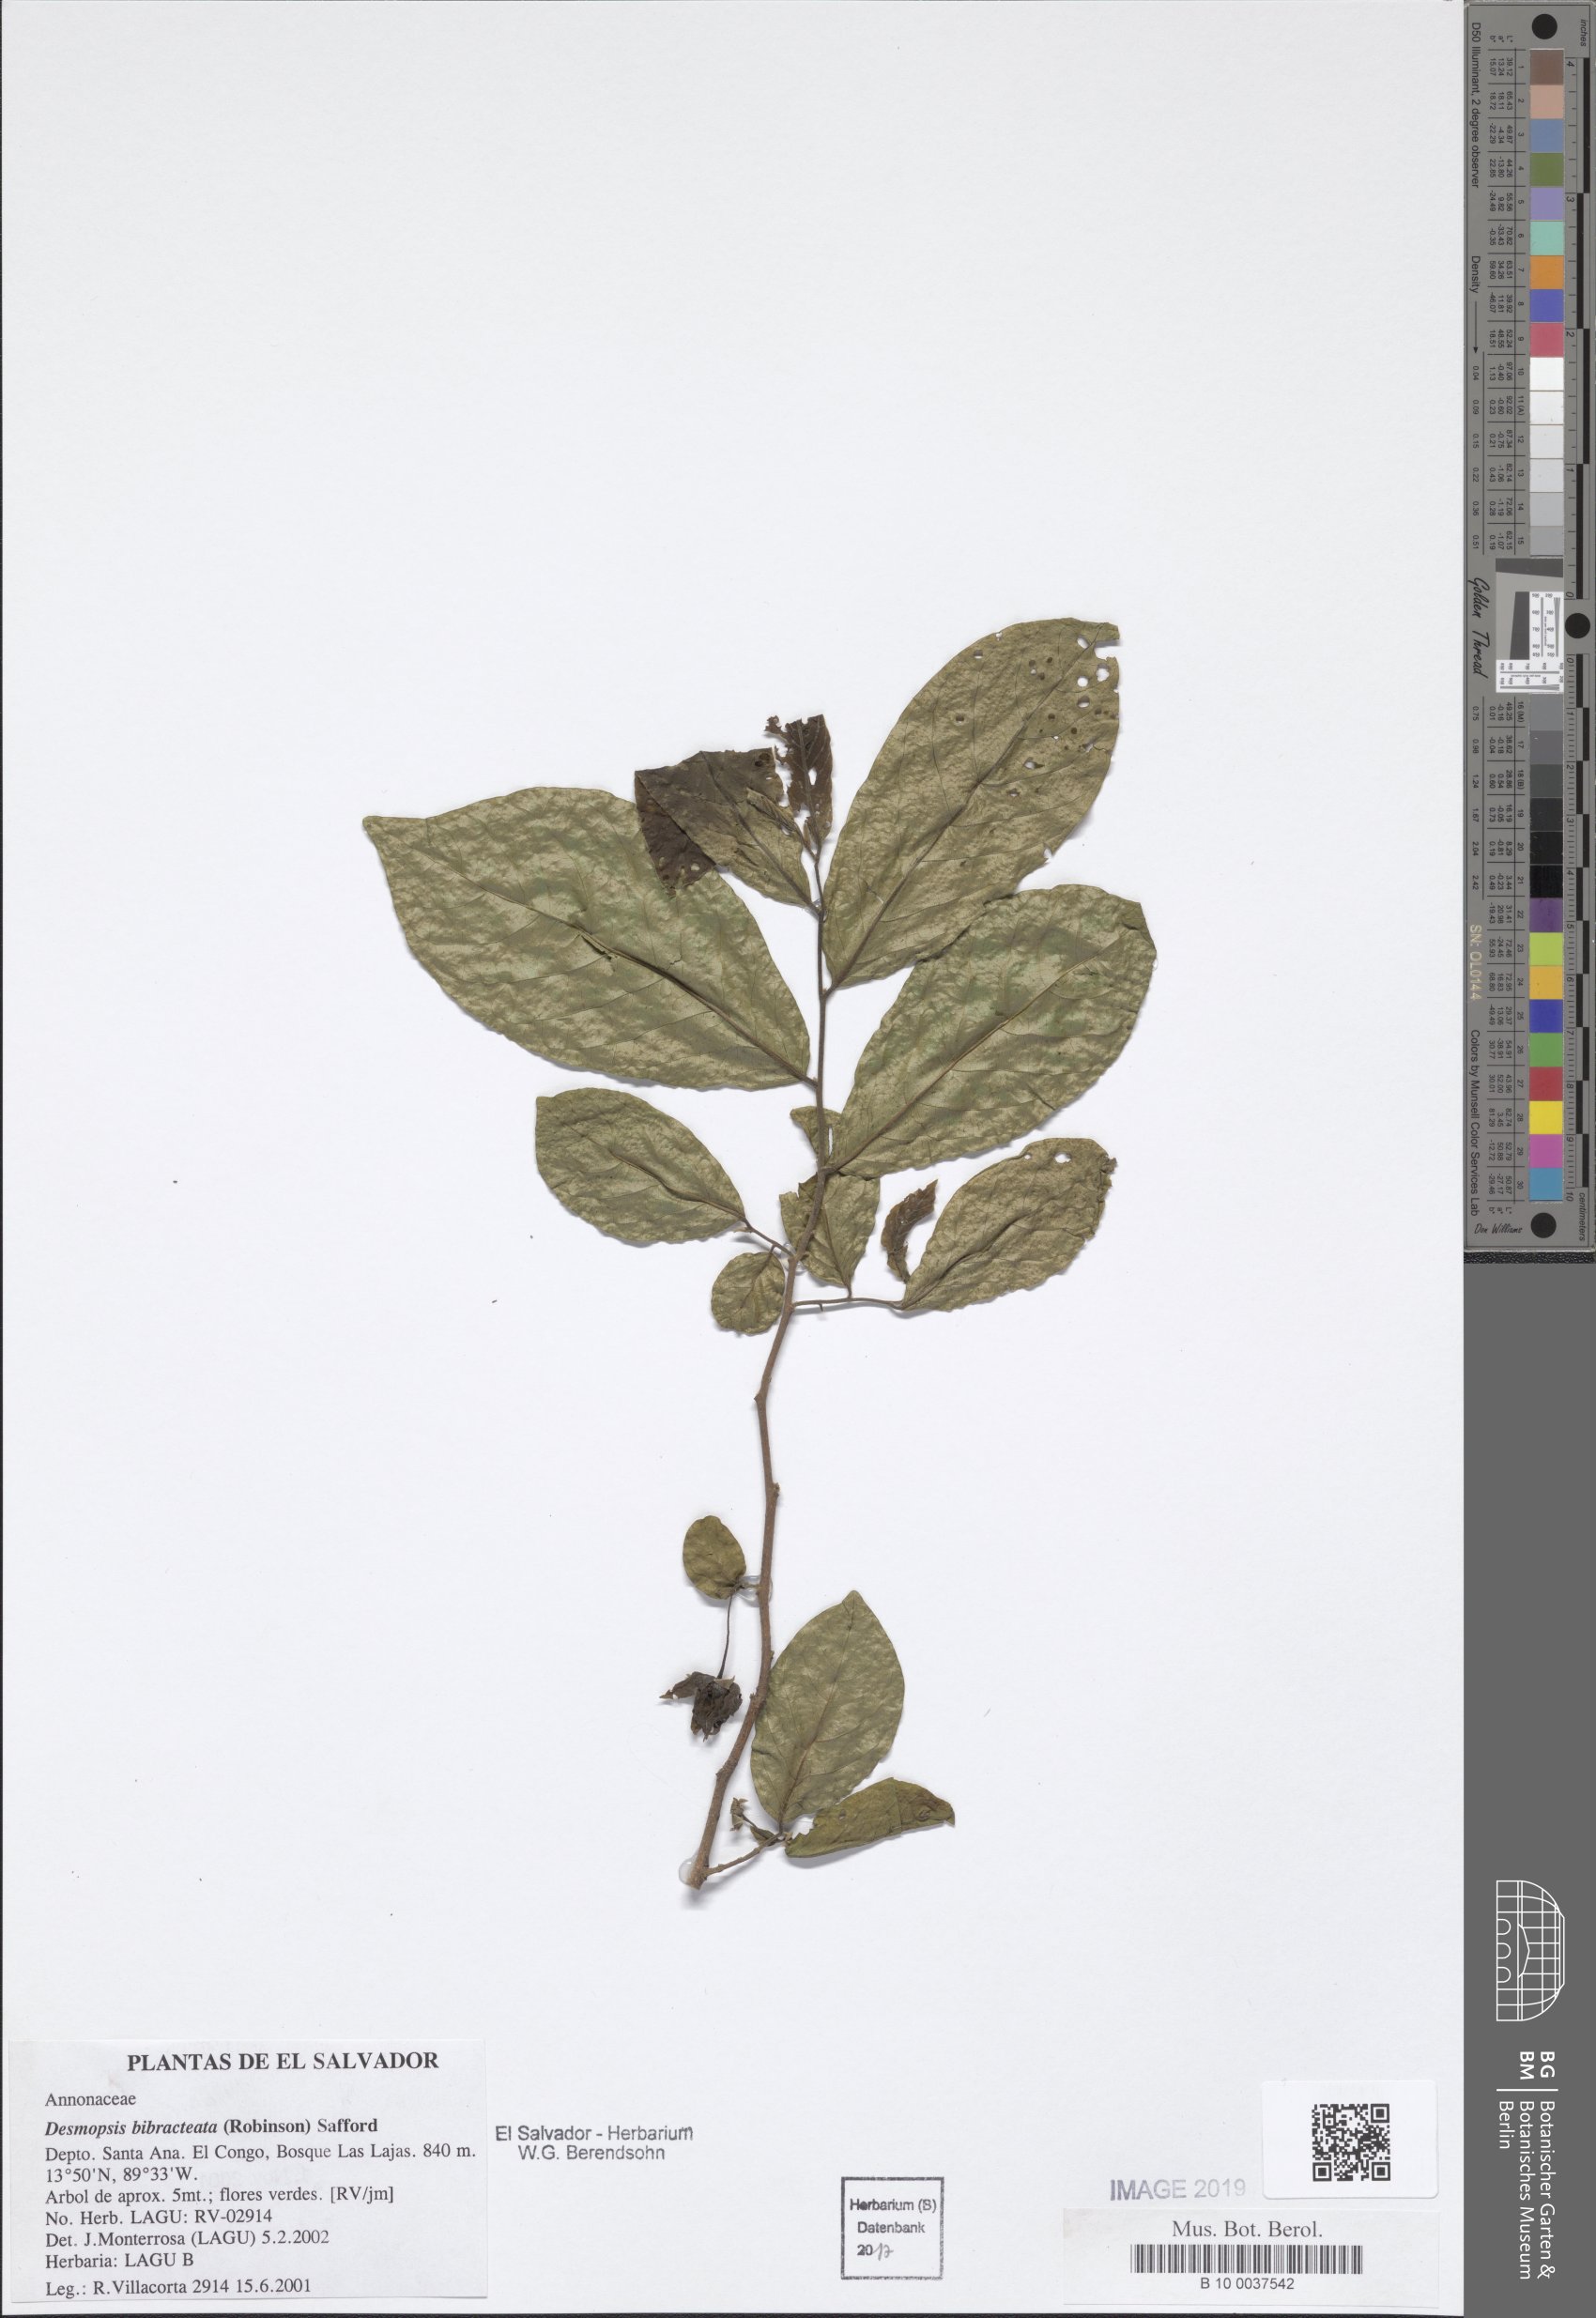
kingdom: Plantae
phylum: Tracheophyta
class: Magnoliopsida
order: Magnoliales
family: Annonaceae
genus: Desmopsis
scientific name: Desmopsis bibracteata
